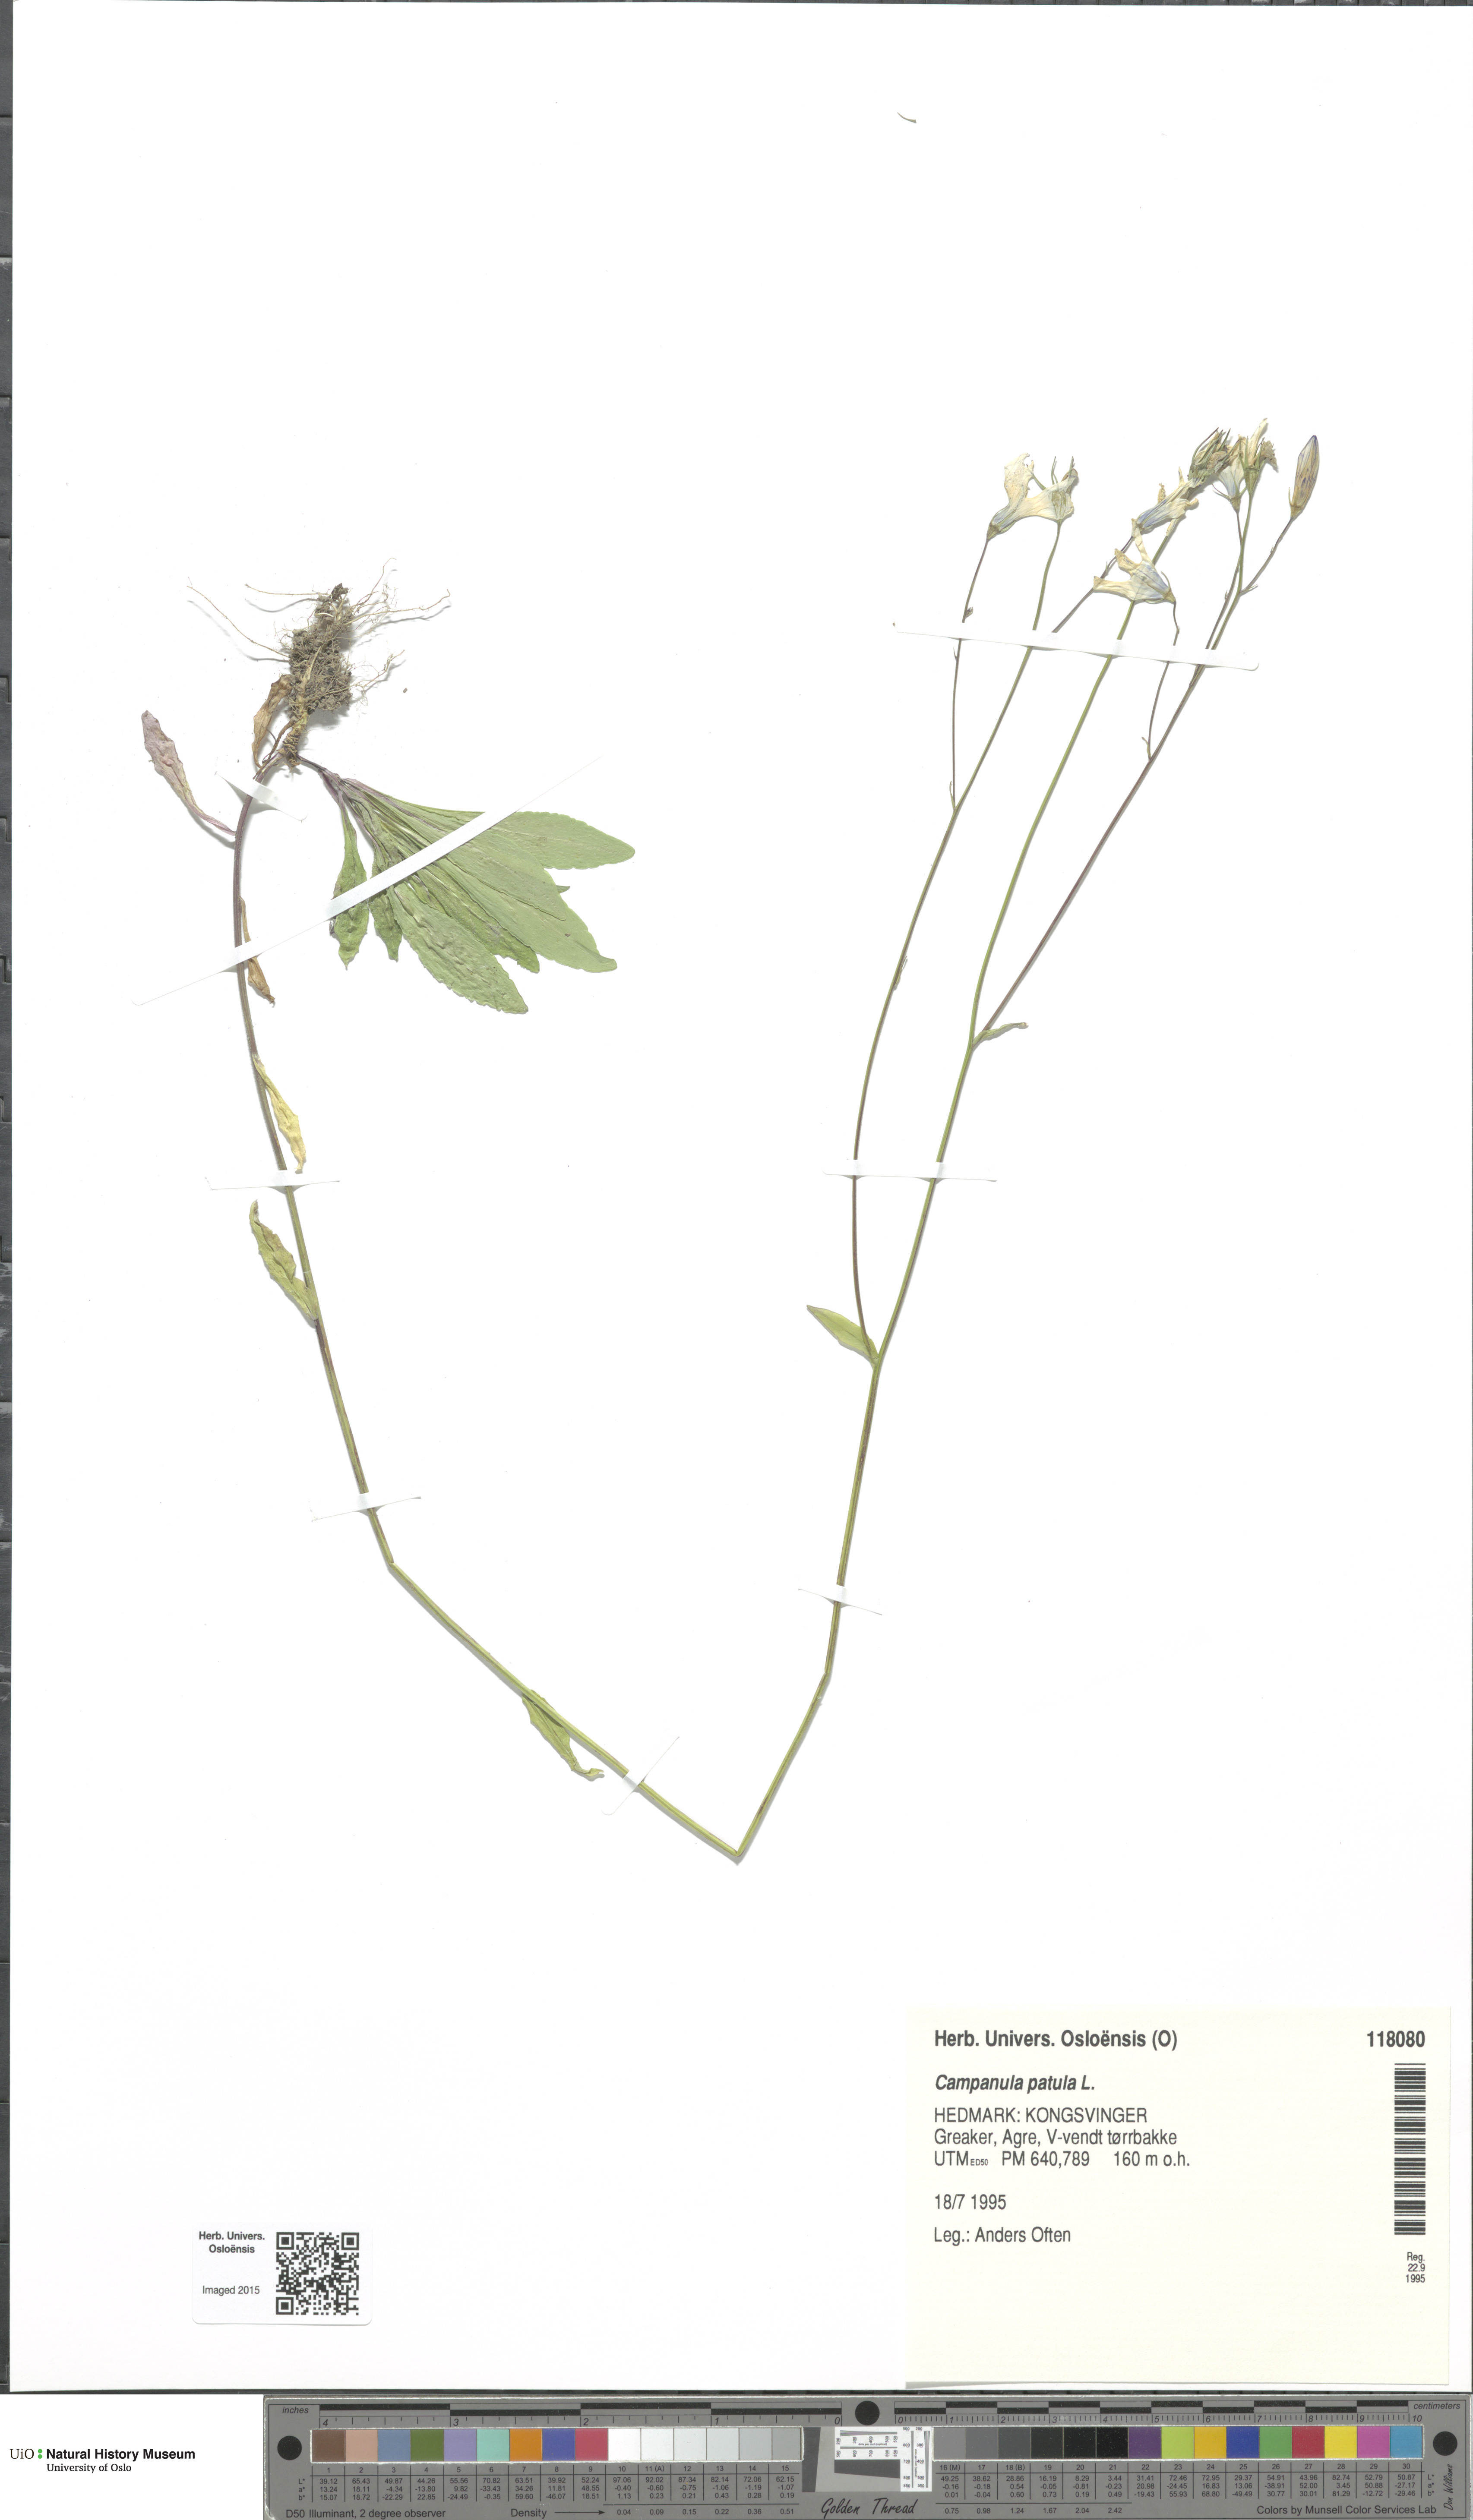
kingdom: Plantae
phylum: Tracheophyta
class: Magnoliopsida
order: Asterales
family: Campanulaceae
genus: Campanula
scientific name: Campanula patula
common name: Spreading bellflower
